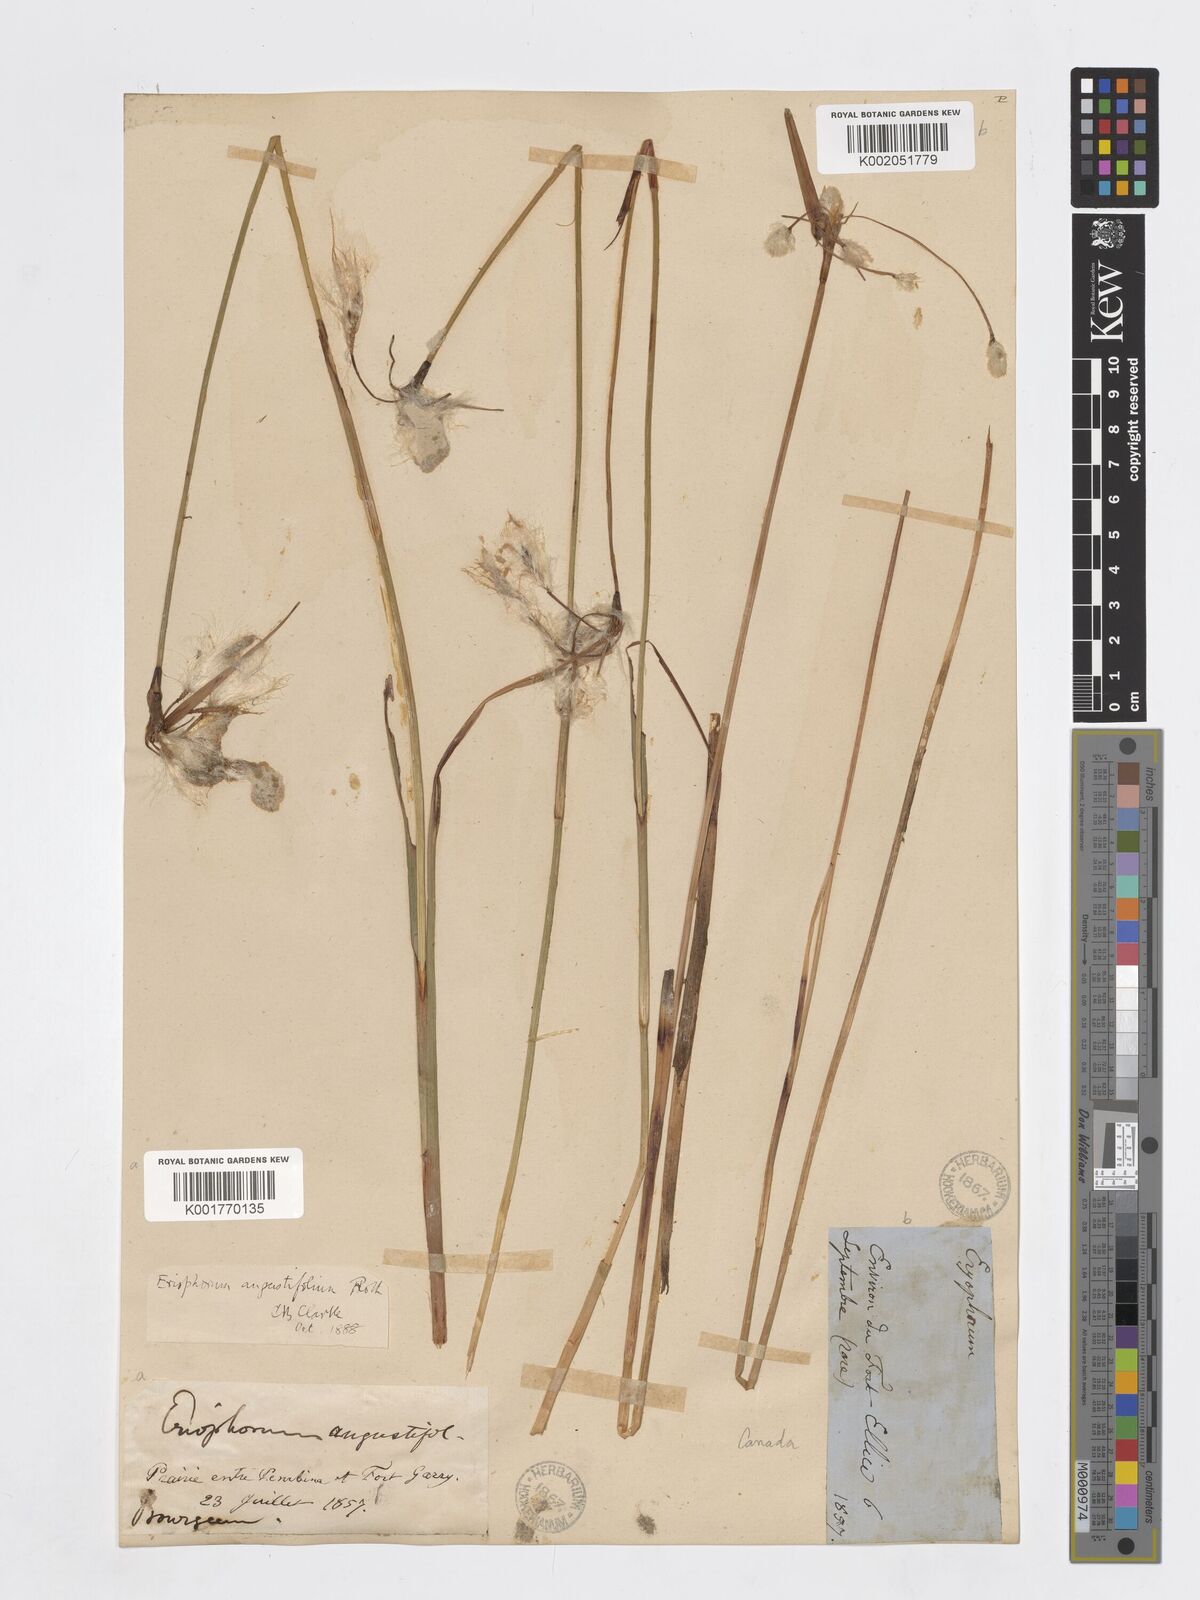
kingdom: Plantae
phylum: Tracheophyta
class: Liliopsida
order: Poales
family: Cyperaceae
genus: Eriophorum
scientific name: Eriophorum angustifolium
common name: Common cottongrass
